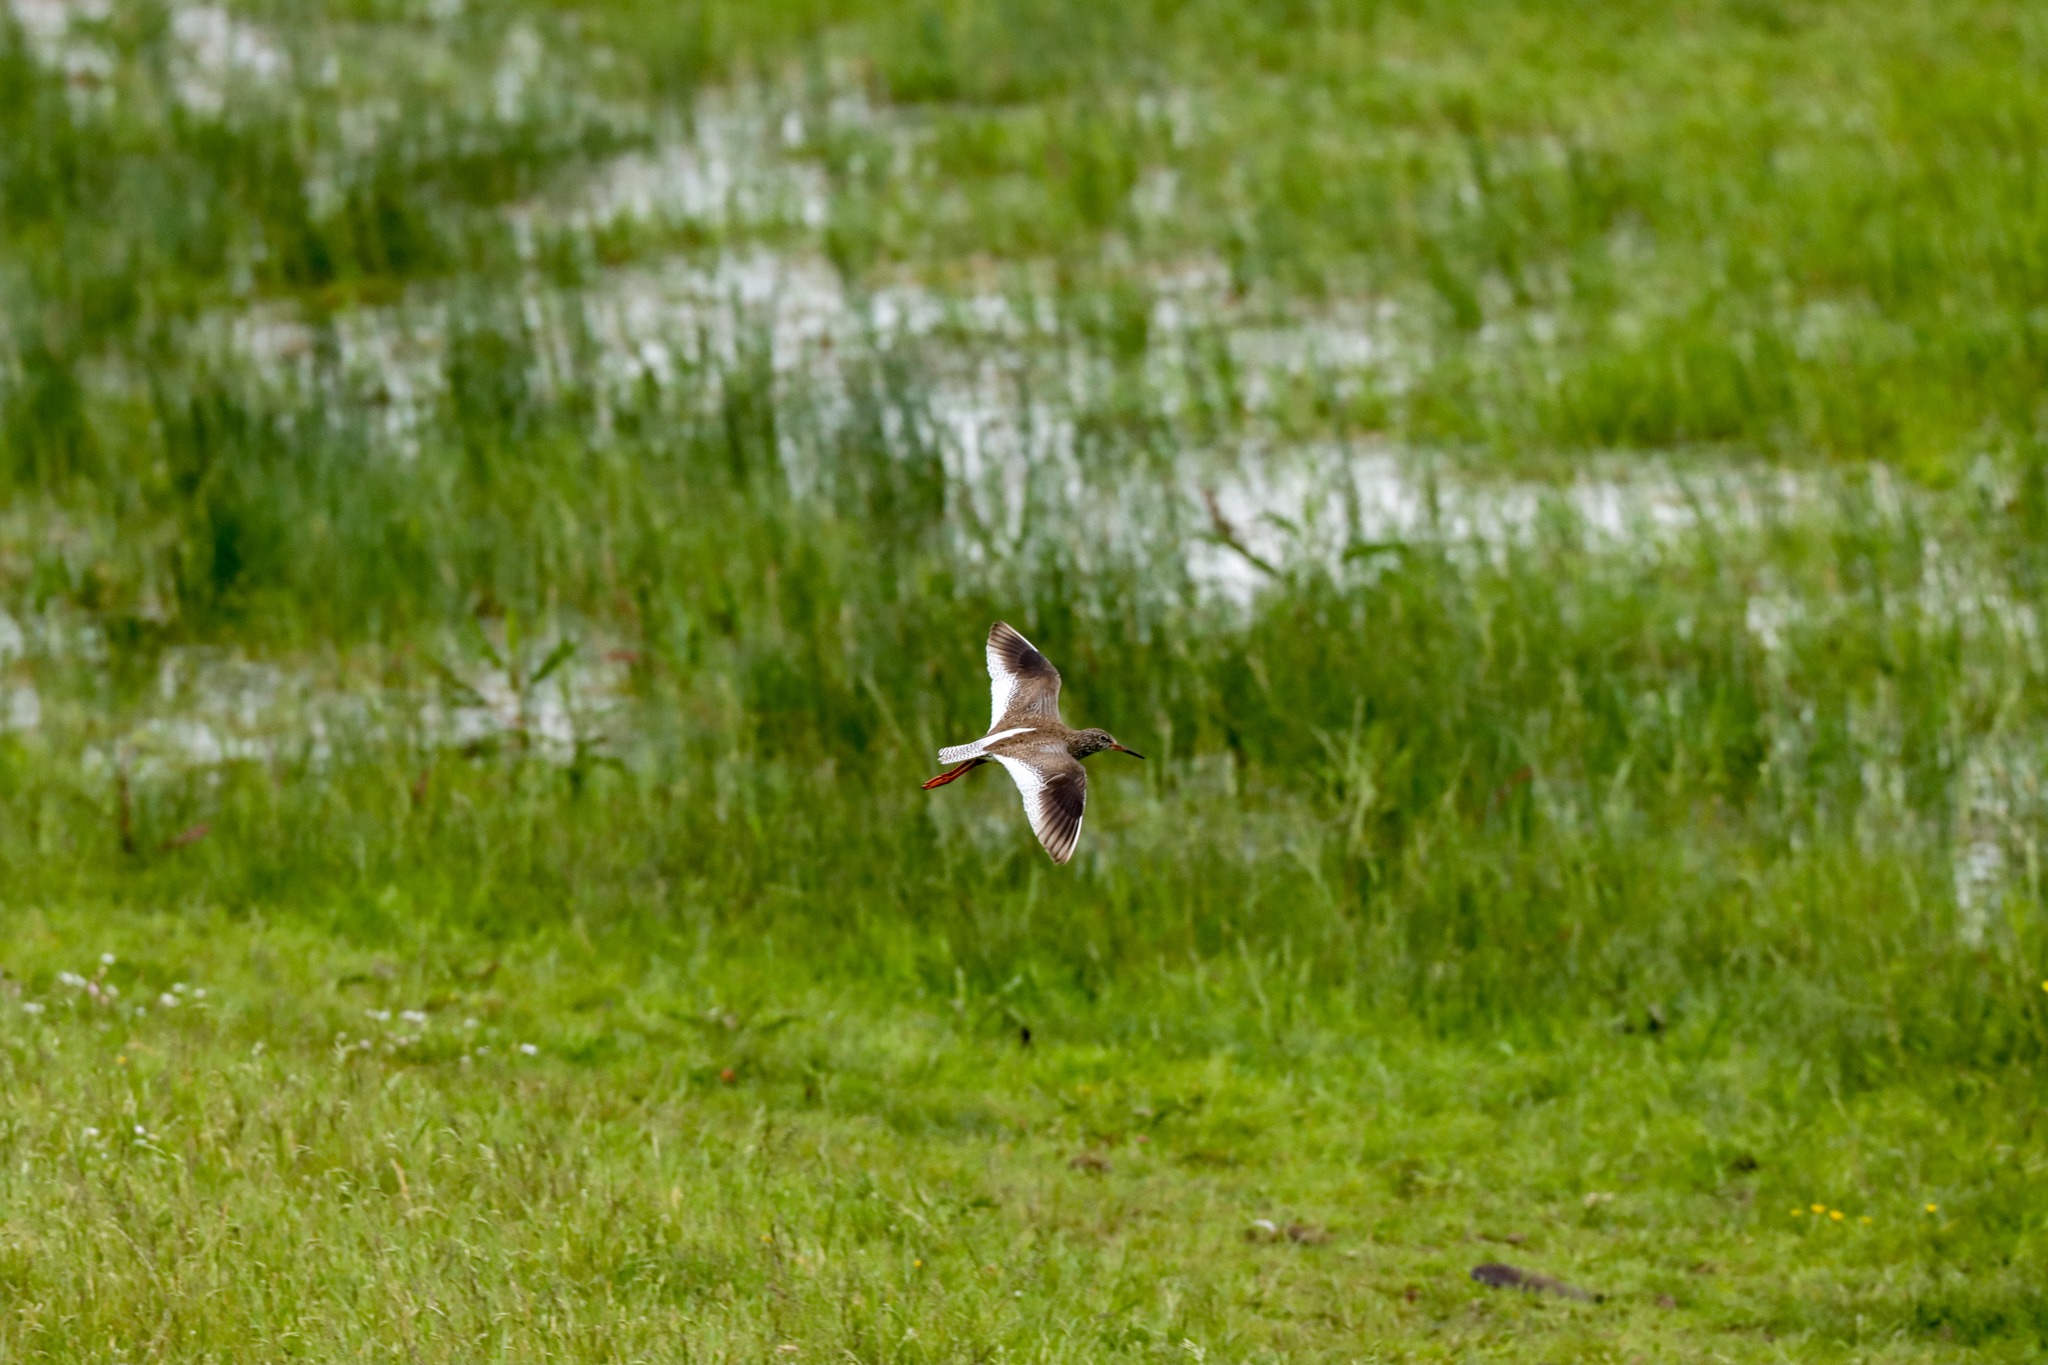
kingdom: Animalia
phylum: Chordata
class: Aves
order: Charadriiformes
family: Scolopacidae
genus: Tringa
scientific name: Tringa totanus
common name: Rødben
